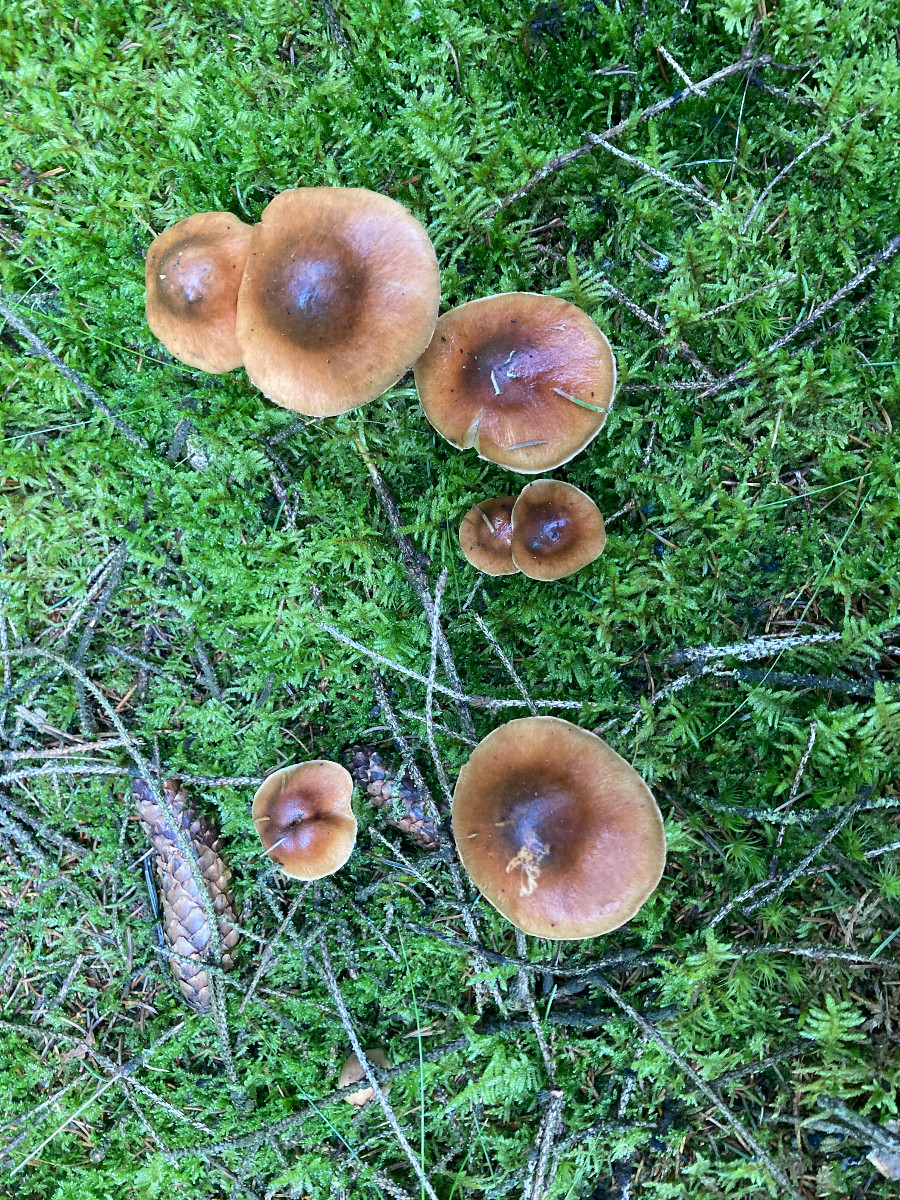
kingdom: Fungi
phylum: Basidiomycota
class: Agaricomycetes
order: Agaricales
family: Cortinariaceae
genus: Cortinarius
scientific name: Cortinarius
